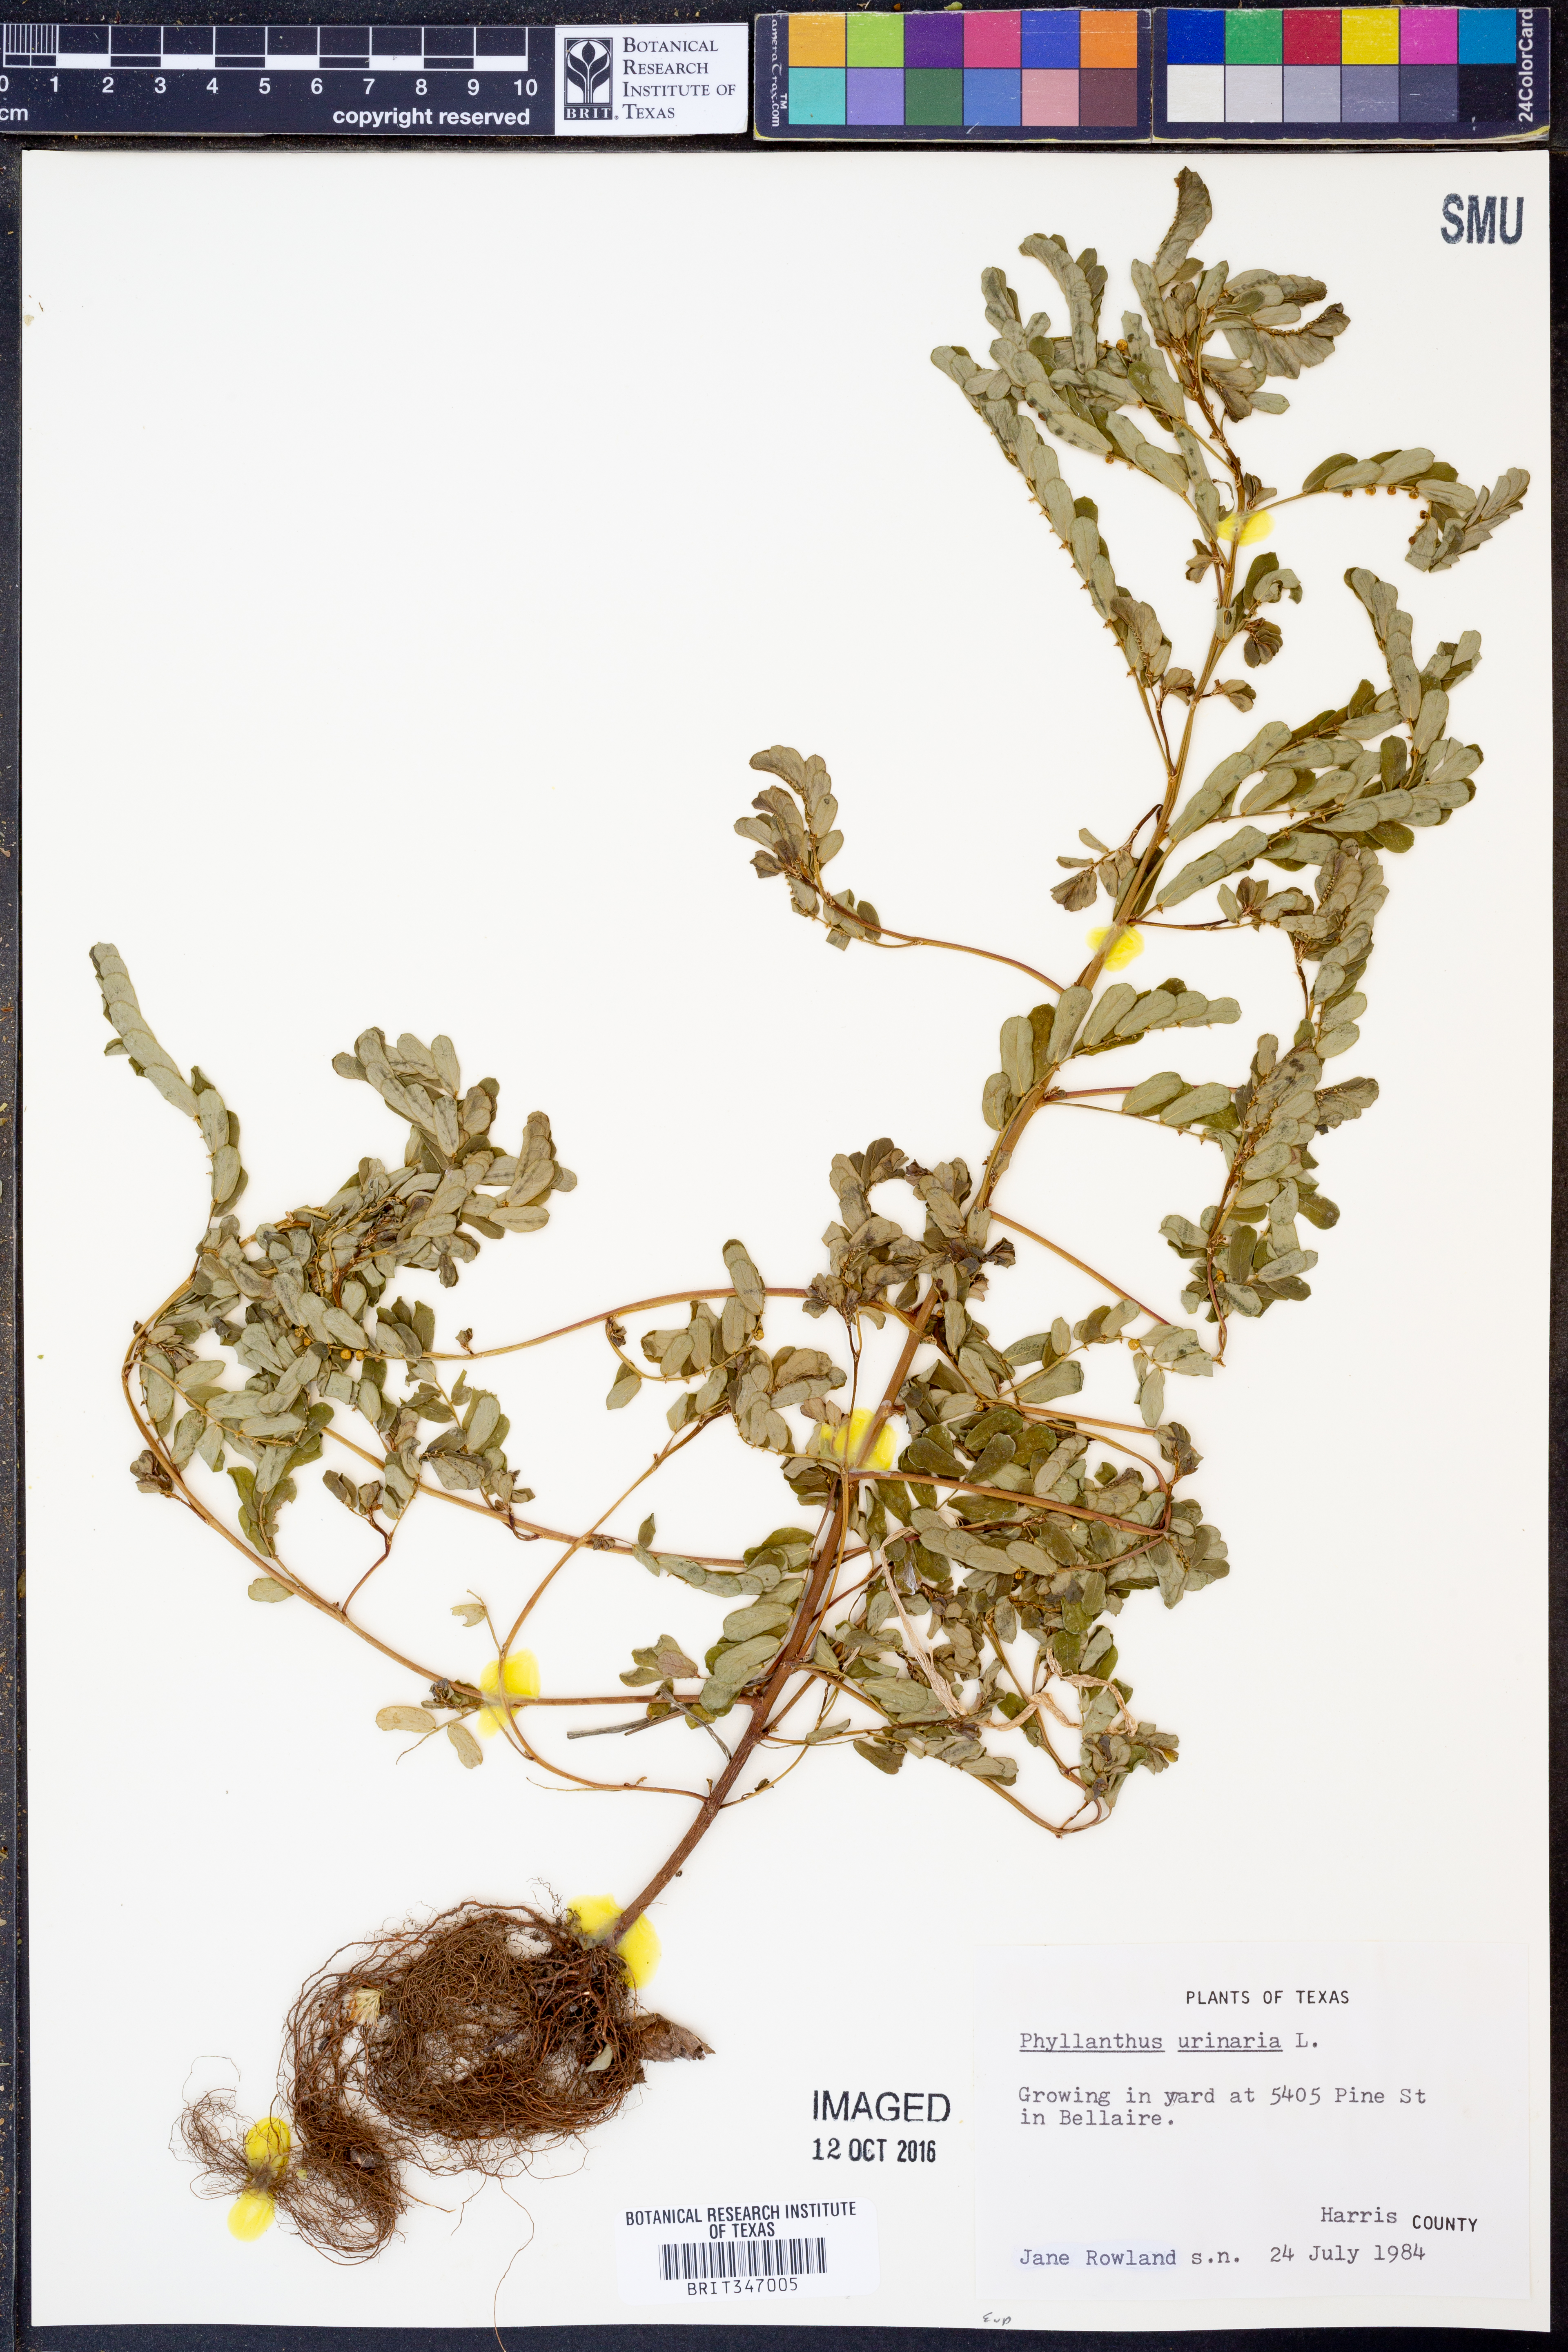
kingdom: Plantae
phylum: Tracheophyta
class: Magnoliopsida
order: Malpighiales
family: Phyllanthaceae
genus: Phyllanthus
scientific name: Phyllanthus urinaria
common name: Chamber bitter
